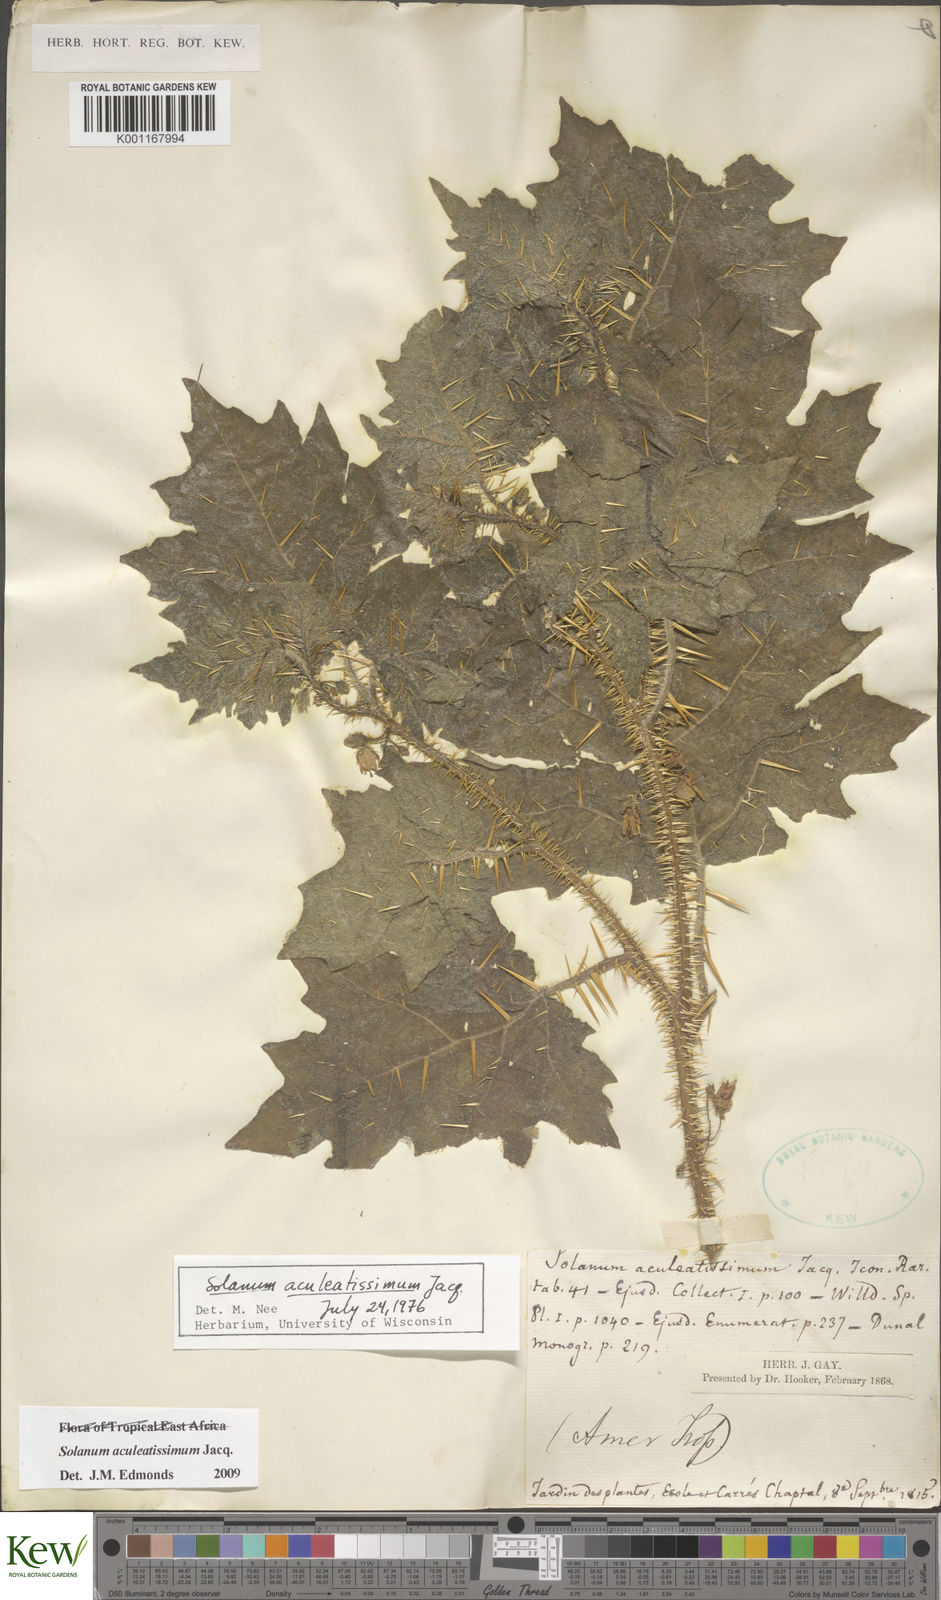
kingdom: Plantae
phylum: Tracheophyta
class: Magnoliopsida
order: Solanales
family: Solanaceae
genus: Solanum
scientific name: Solanum aculeatissimum
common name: Dutch eggplant
